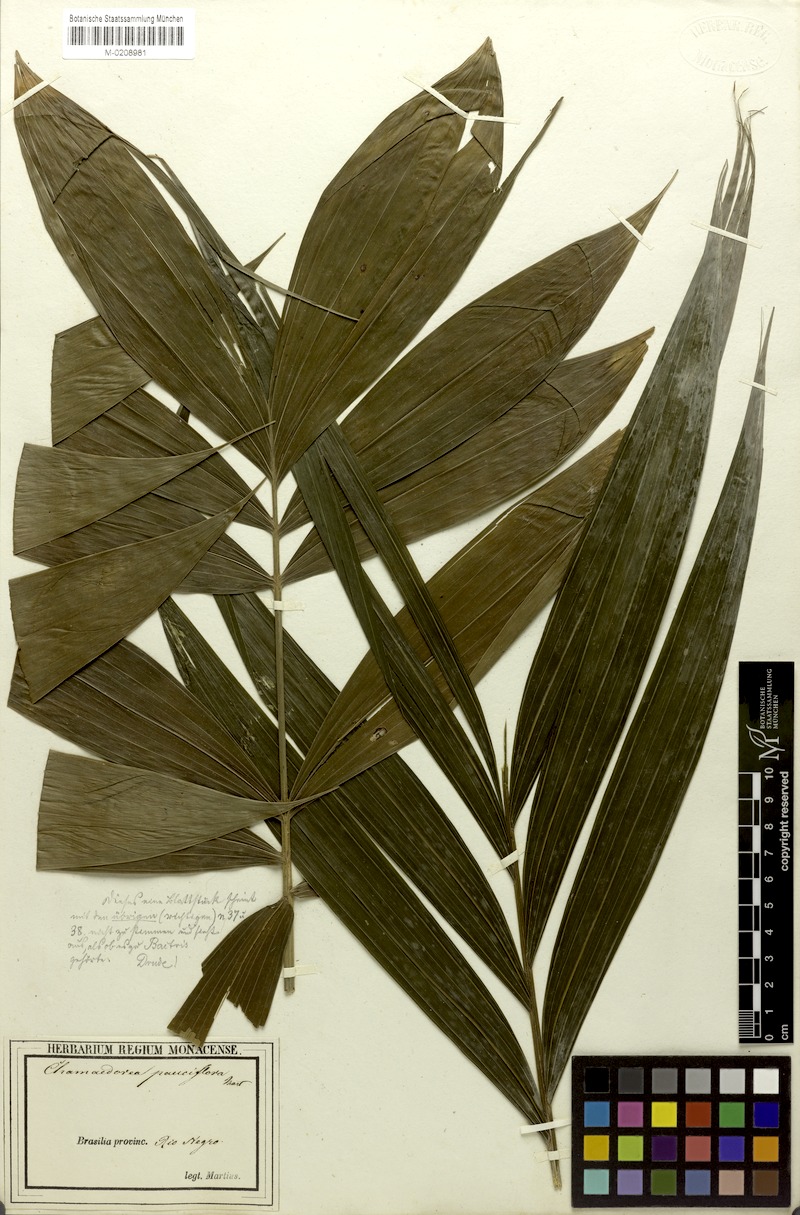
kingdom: Plantae
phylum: Tracheophyta
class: Liliopsida
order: Arecales
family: Arecaceae
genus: Chamaedorea
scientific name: Chamaedorea pauciflora
